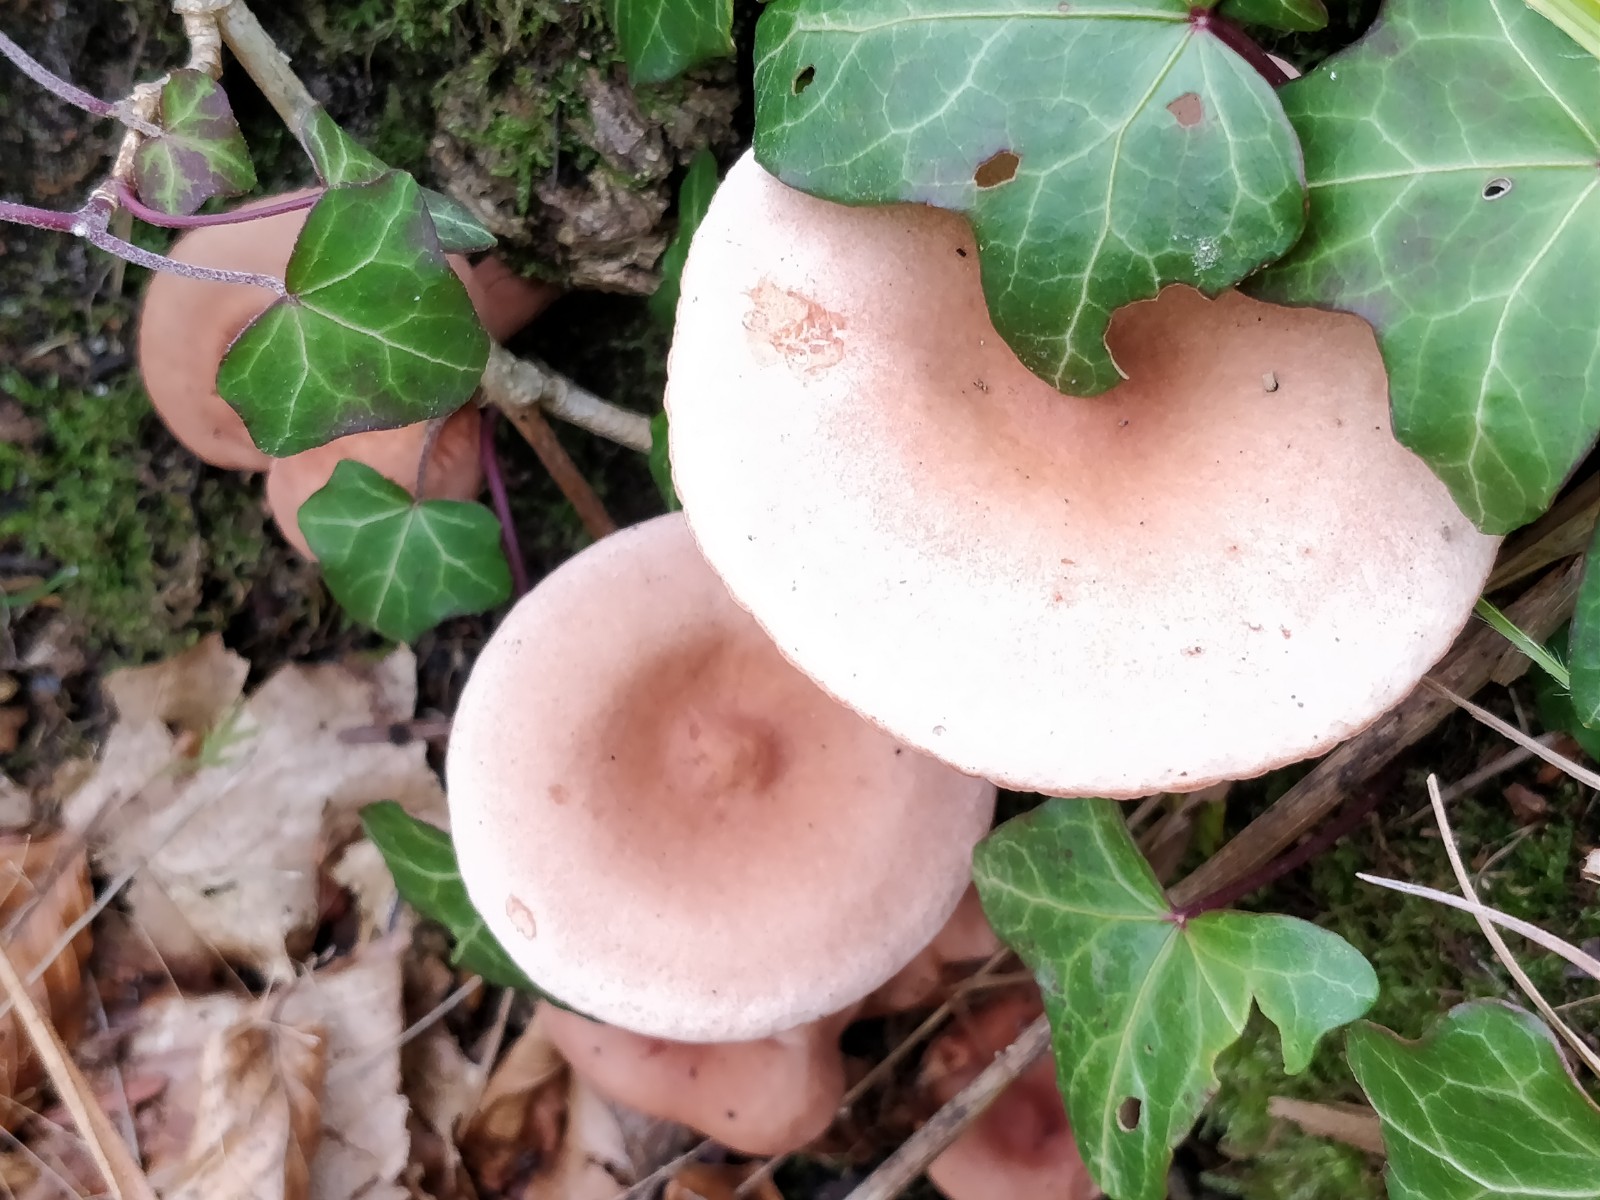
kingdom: Fungi
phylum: Basidiomycota
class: Agaricomycetes
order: Russulales
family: Russulaceae
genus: Lactarius
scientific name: Lactarius camphoratus
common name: kamfer-mælkehat
